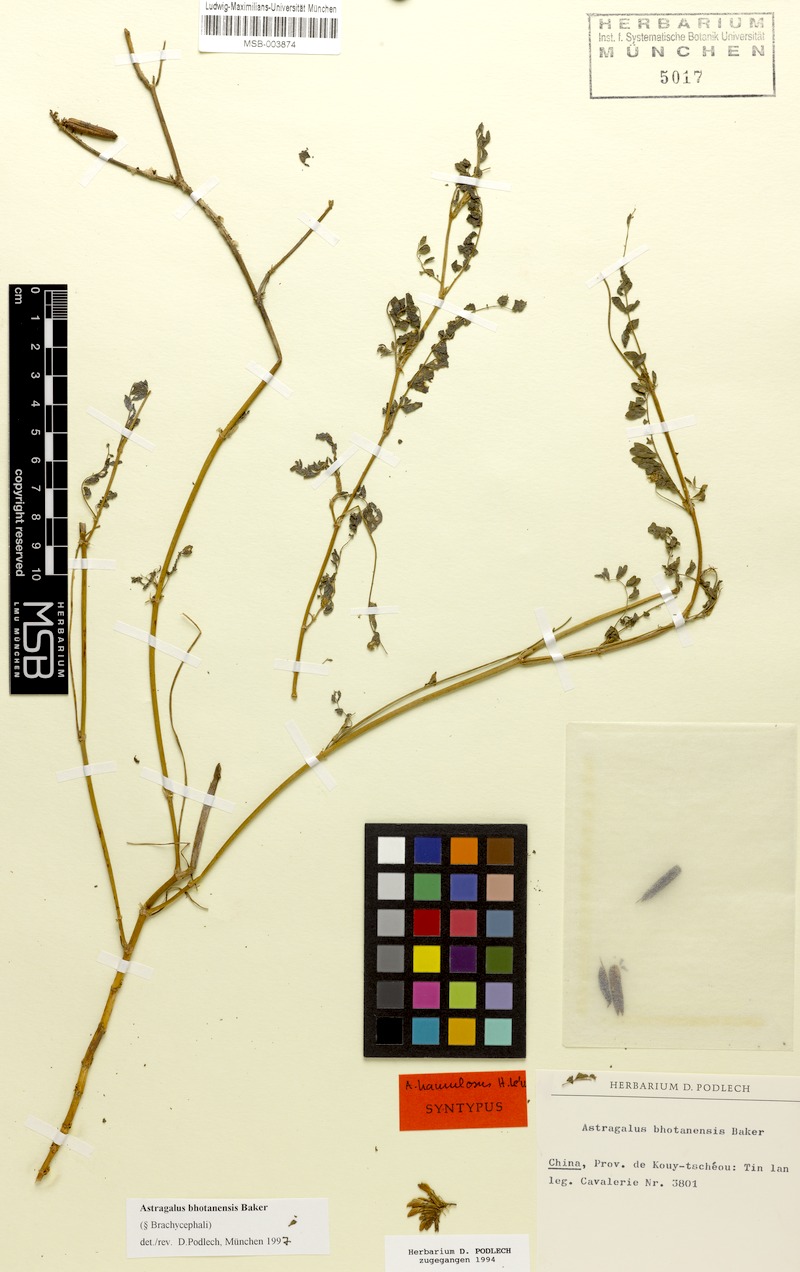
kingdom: Plantae
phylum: Tracheophyta
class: Magnoliopsida
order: Fabales
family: Fabaceae
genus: Astragalus
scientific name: Astragalus bhotanensis
